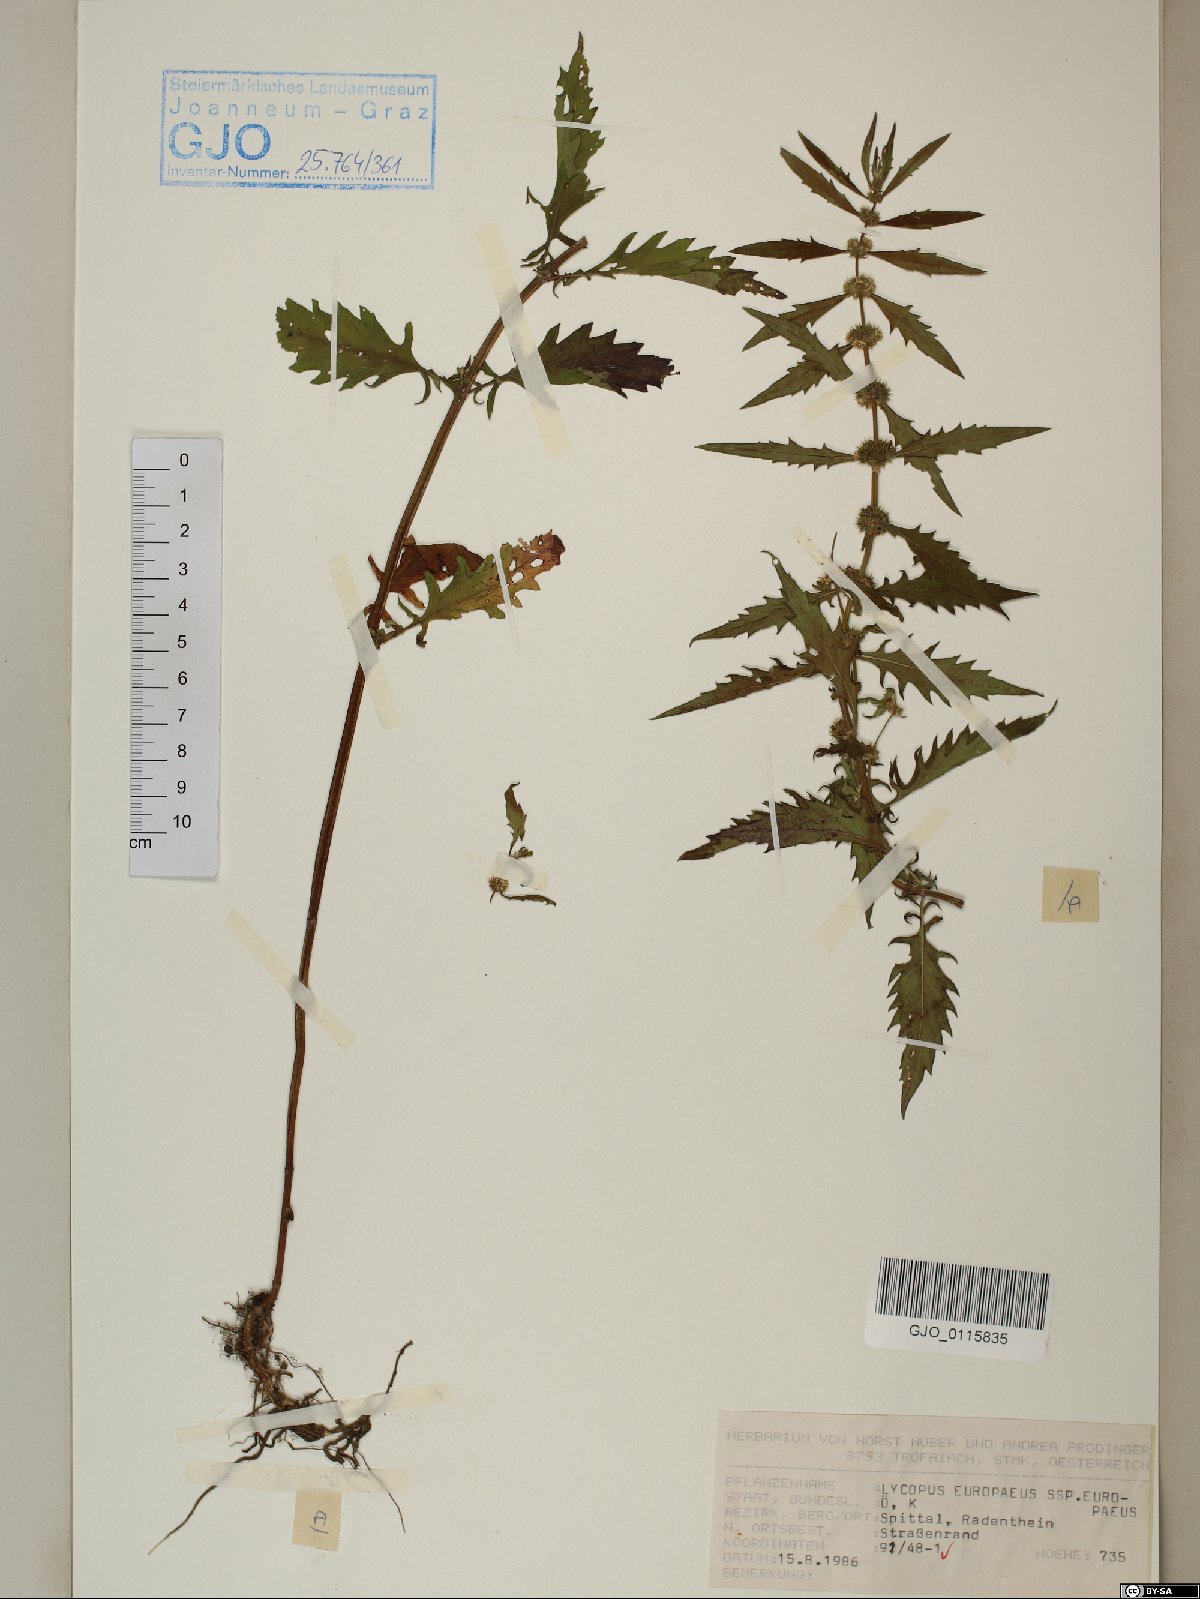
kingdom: Plantae
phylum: Tracheophyta
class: Magnoliopsida
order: Lamiales
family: Lamiaceae
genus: Lycopus
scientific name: Lycopus europaeus
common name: European bugleweed
